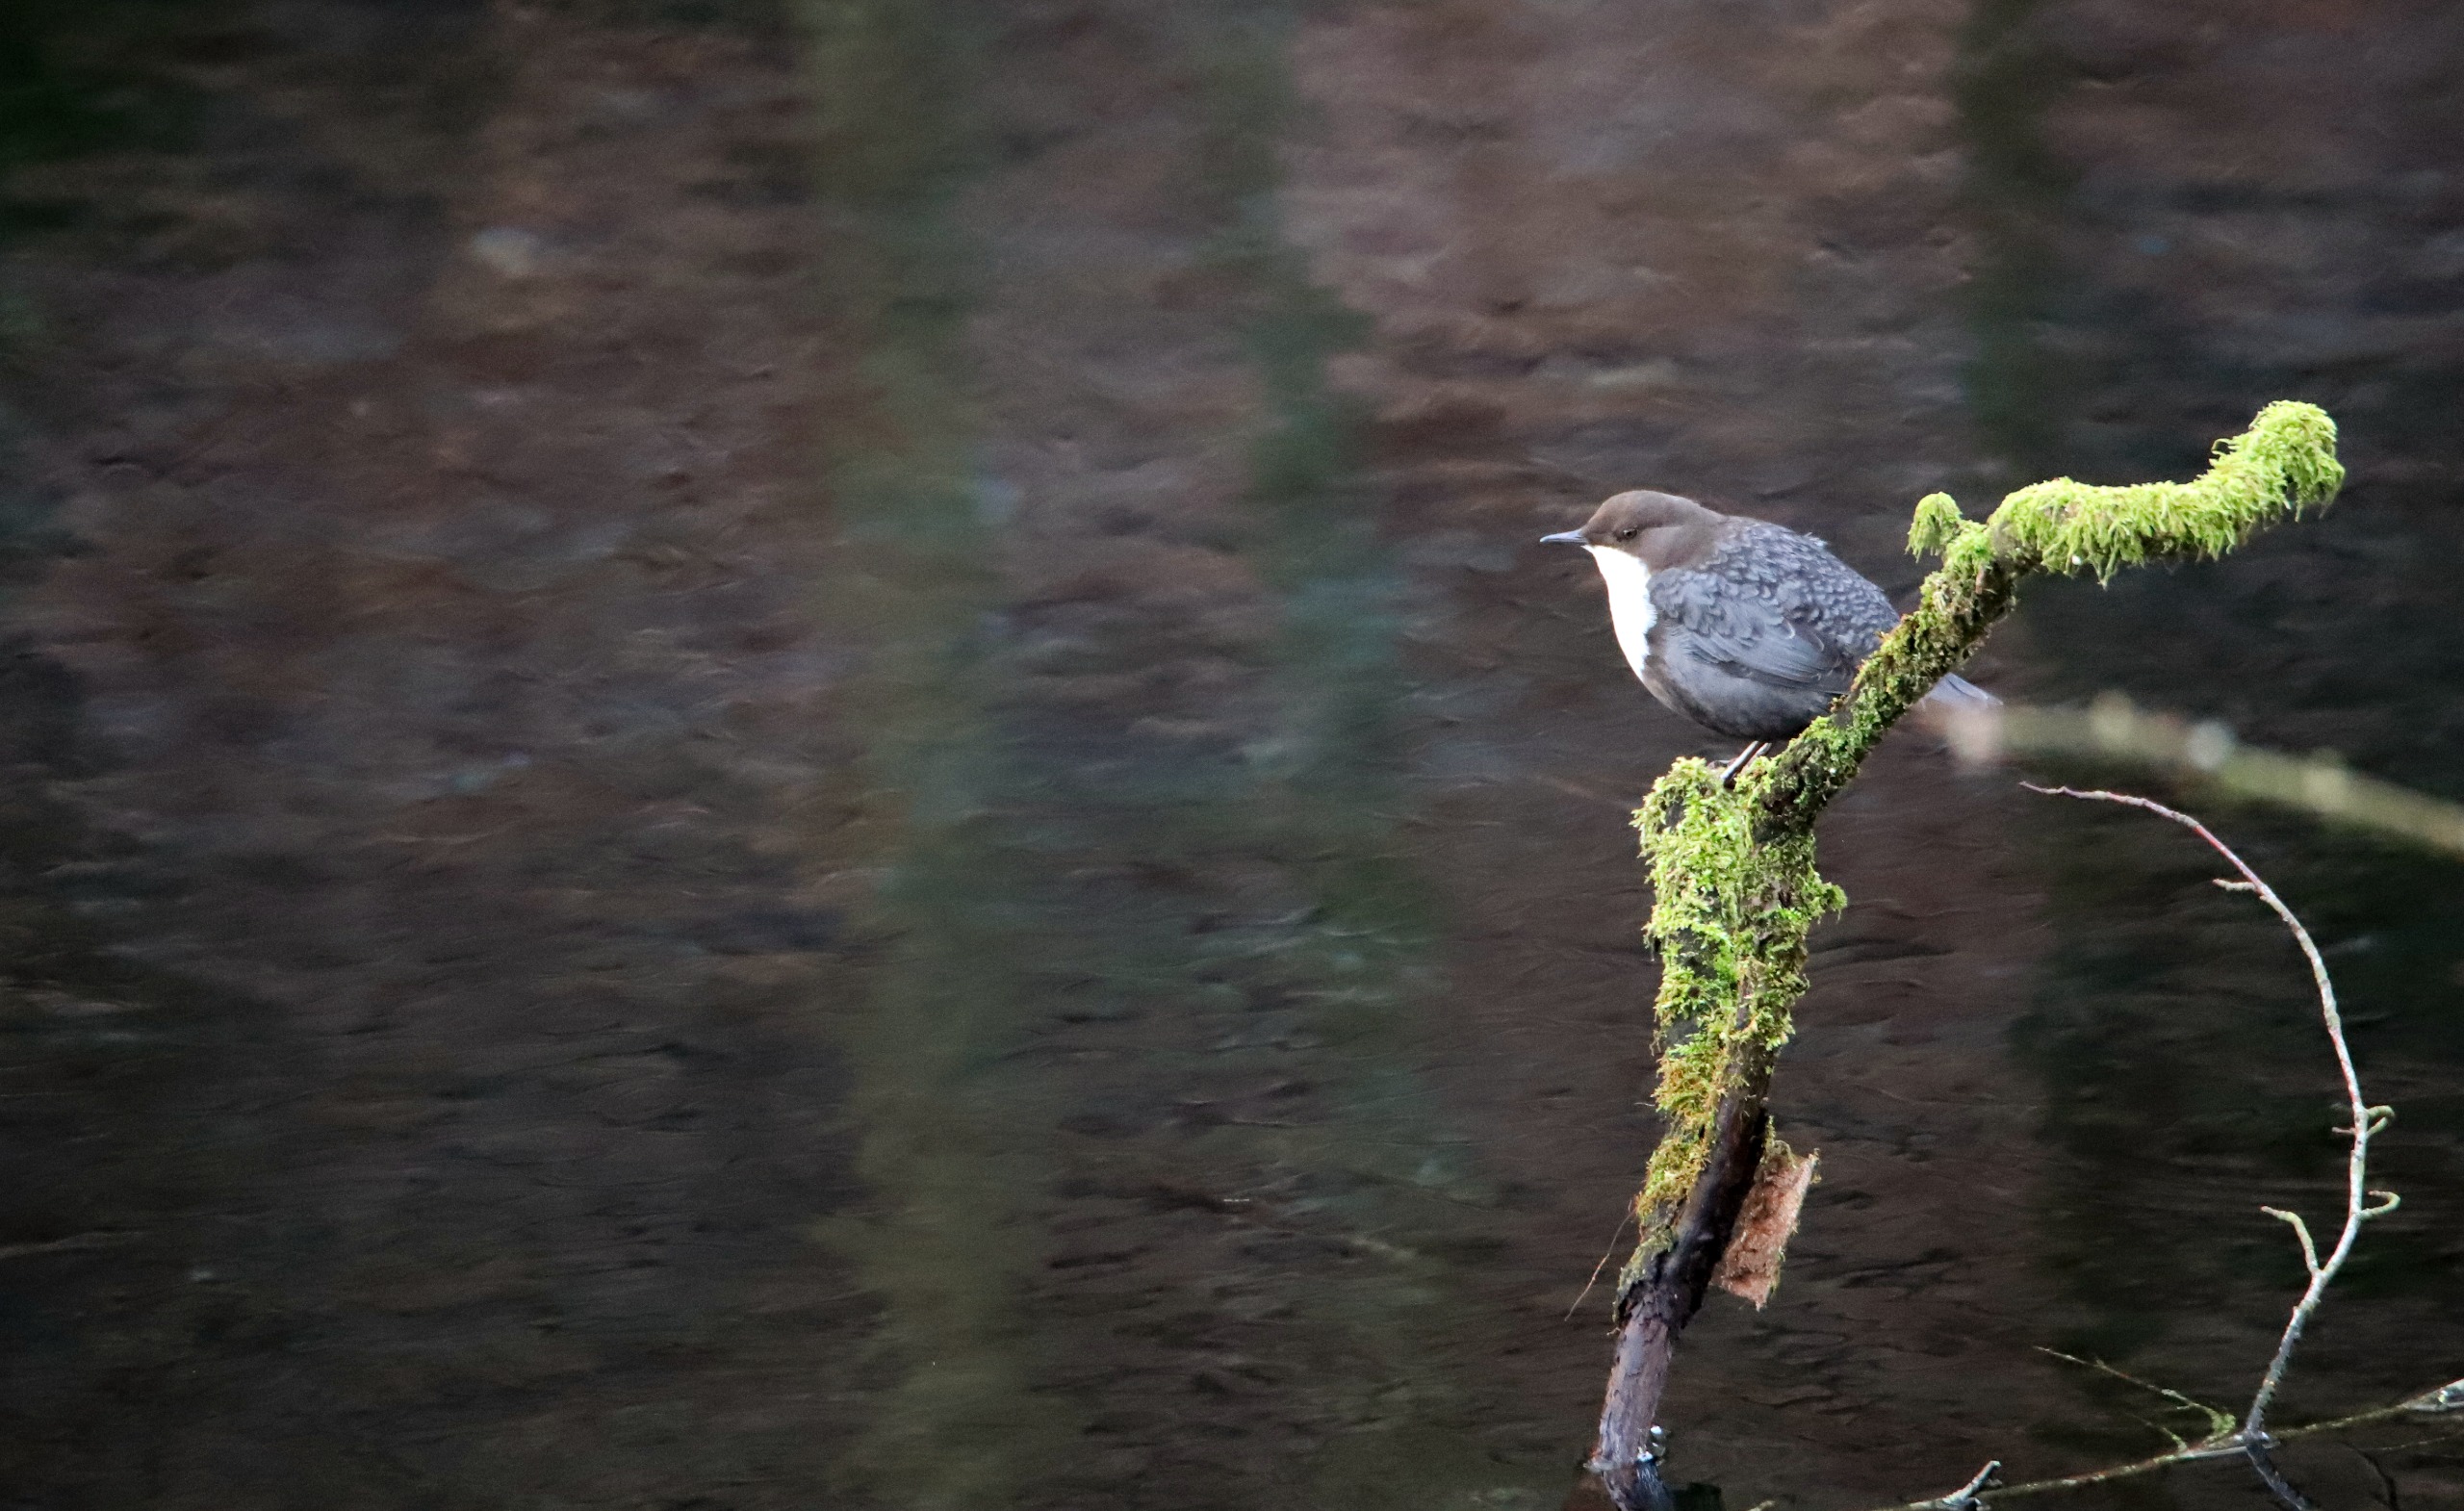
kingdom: Animalia
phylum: Chordata
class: Aves
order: Passeriformes
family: Cinclidae
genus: Cinclus
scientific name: Cinclus cinclus
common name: Vandstær
